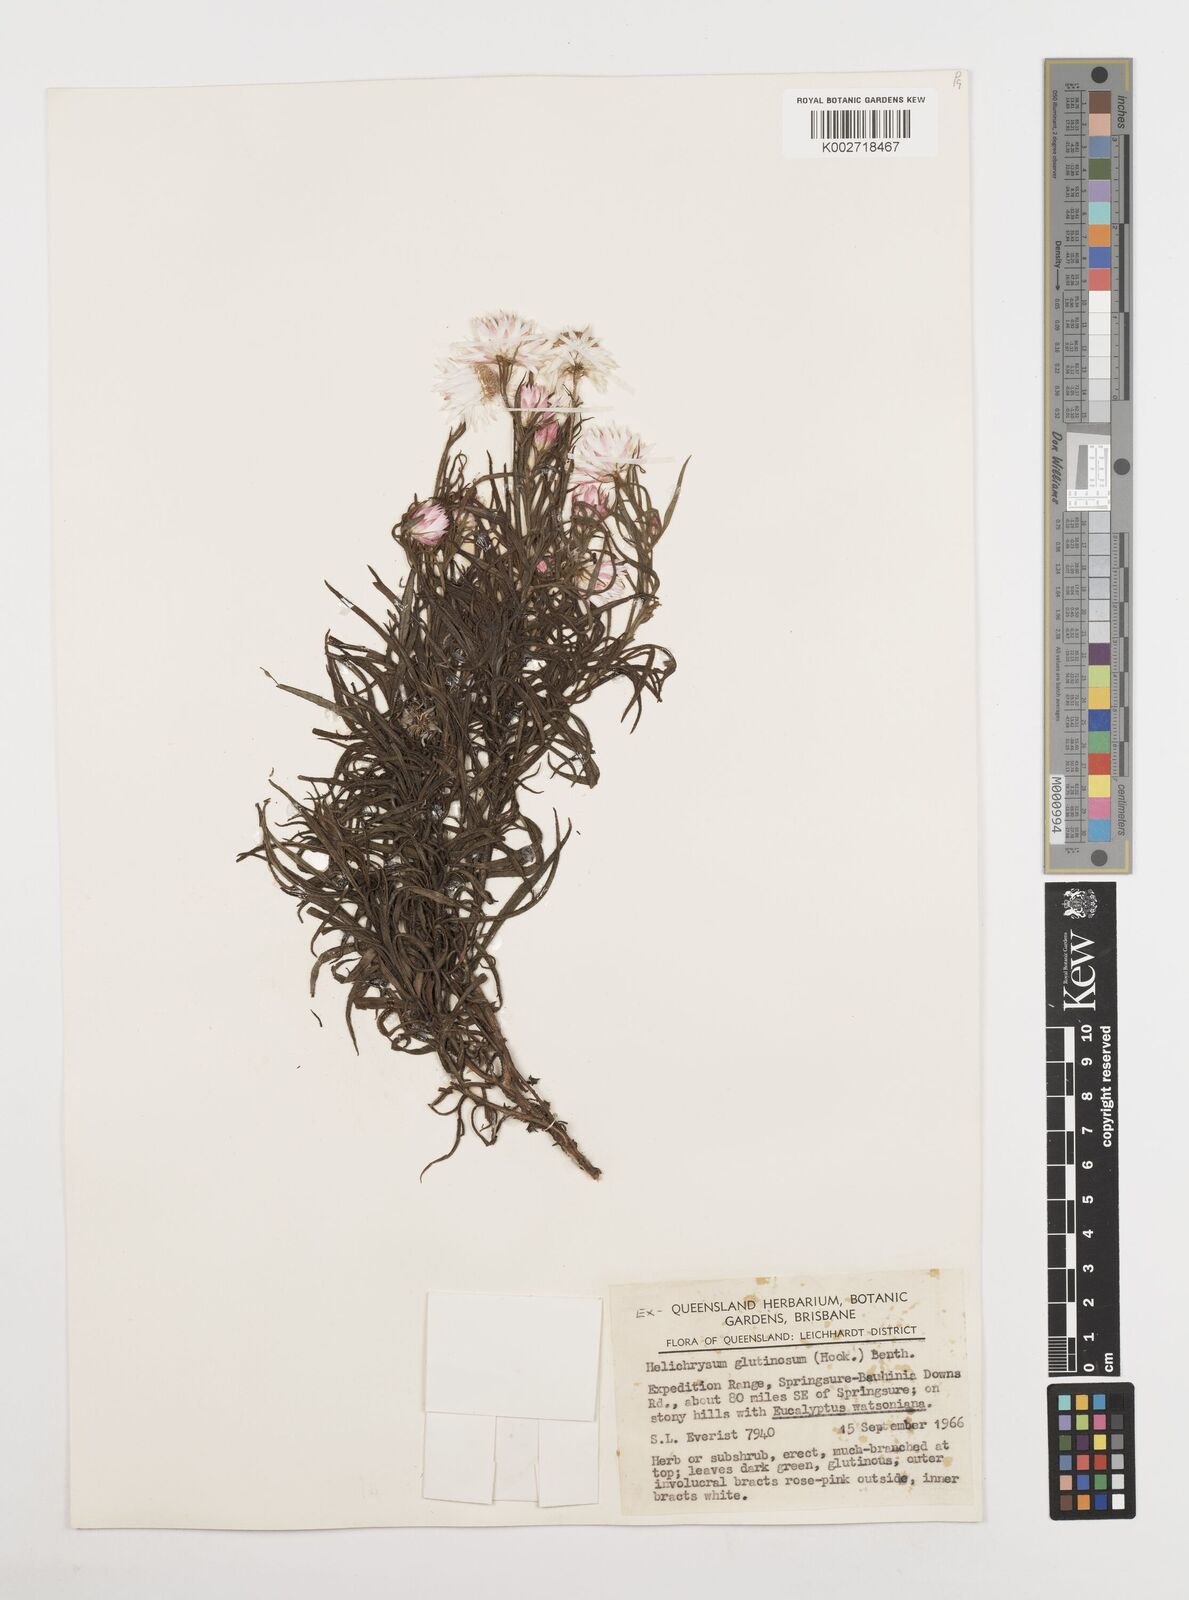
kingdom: Plantae
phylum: Tracheophyta
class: Magnoliopsida
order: Asterales
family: Asteraceae
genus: Coronidium
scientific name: Coronidium glutinosum
